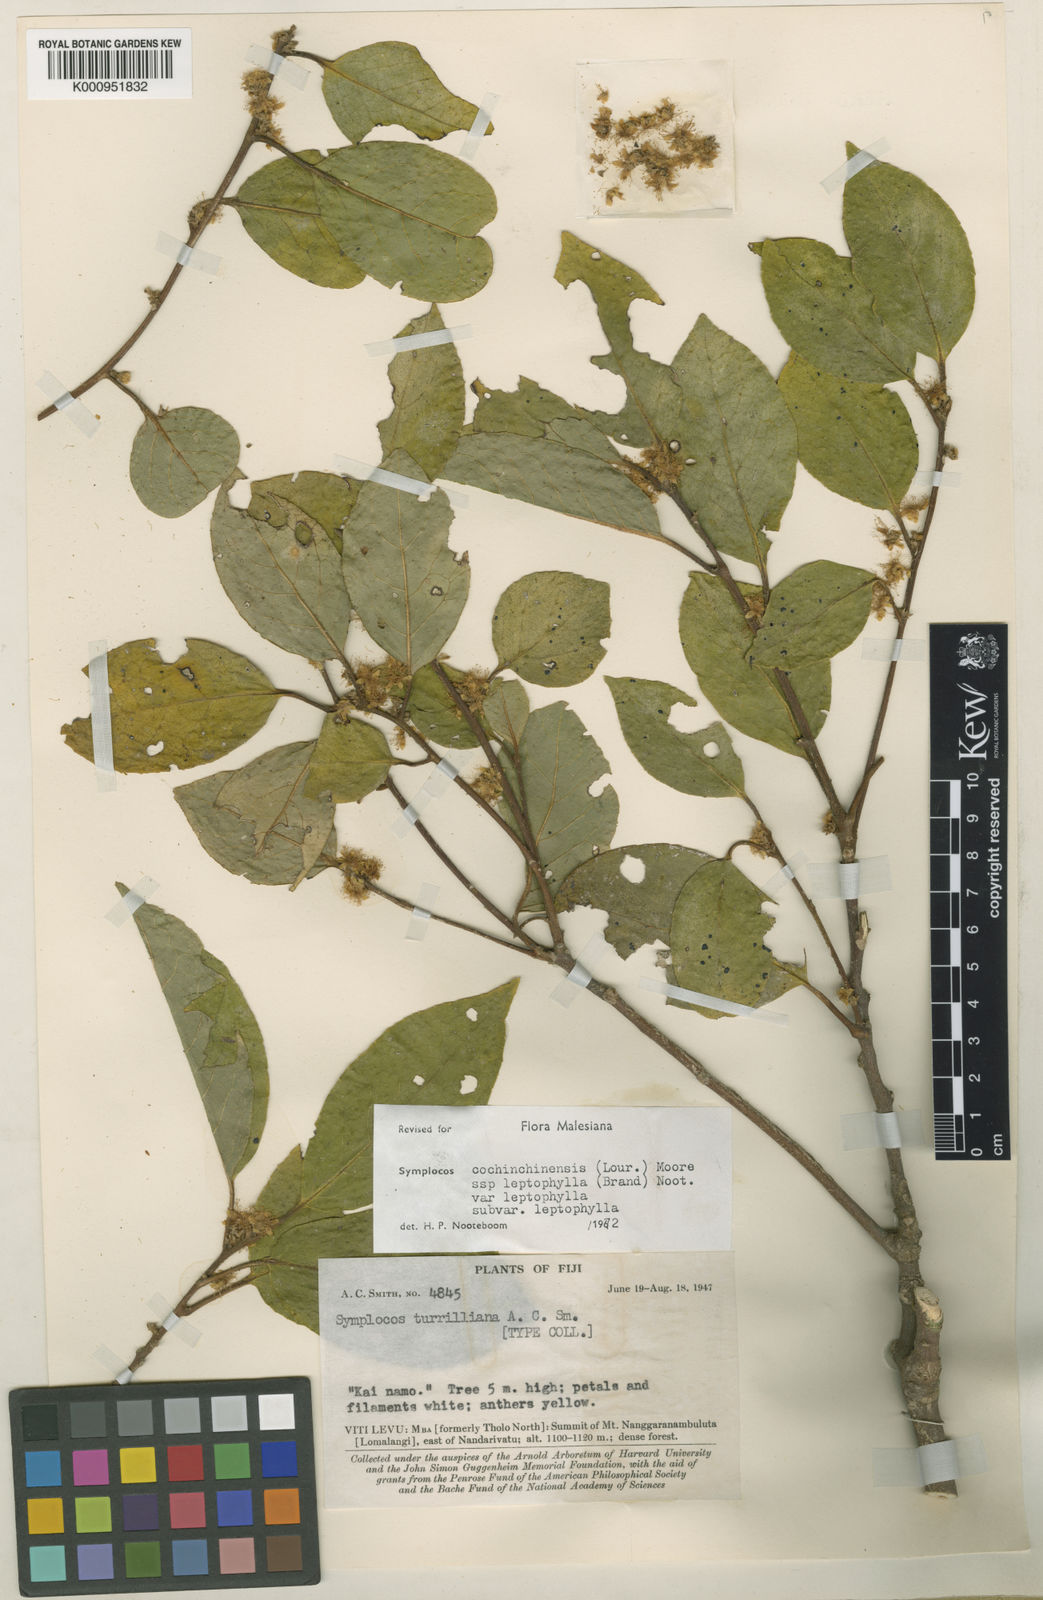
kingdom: Plantae
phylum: Tracheophyta
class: Magnoliopsida
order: Ericales
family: Symplocaceae
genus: Symplocos
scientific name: Symplocos leptophylla
